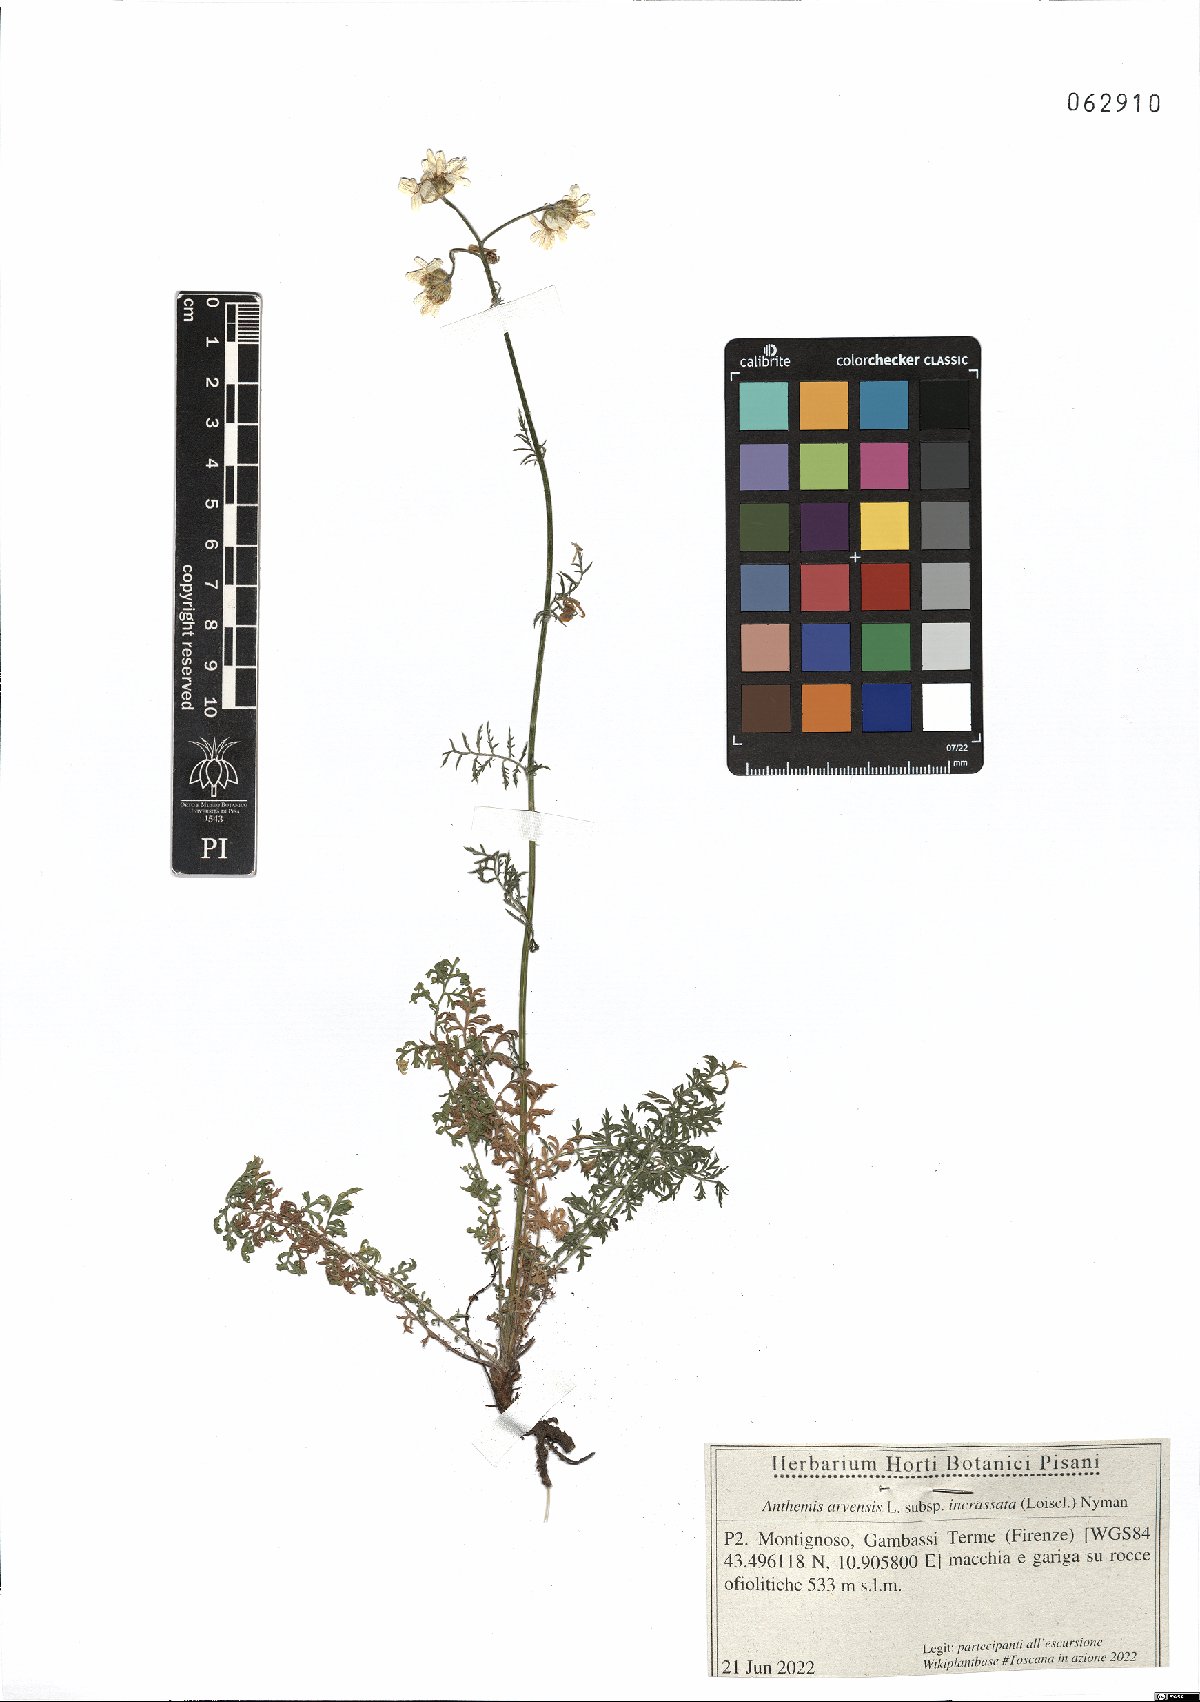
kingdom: Plantae
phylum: Tracheophyta
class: Magnoliopsida
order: Asterales
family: Asteraceae
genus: Anthemis
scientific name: Anthemis arvensis
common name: Corn chamomile
